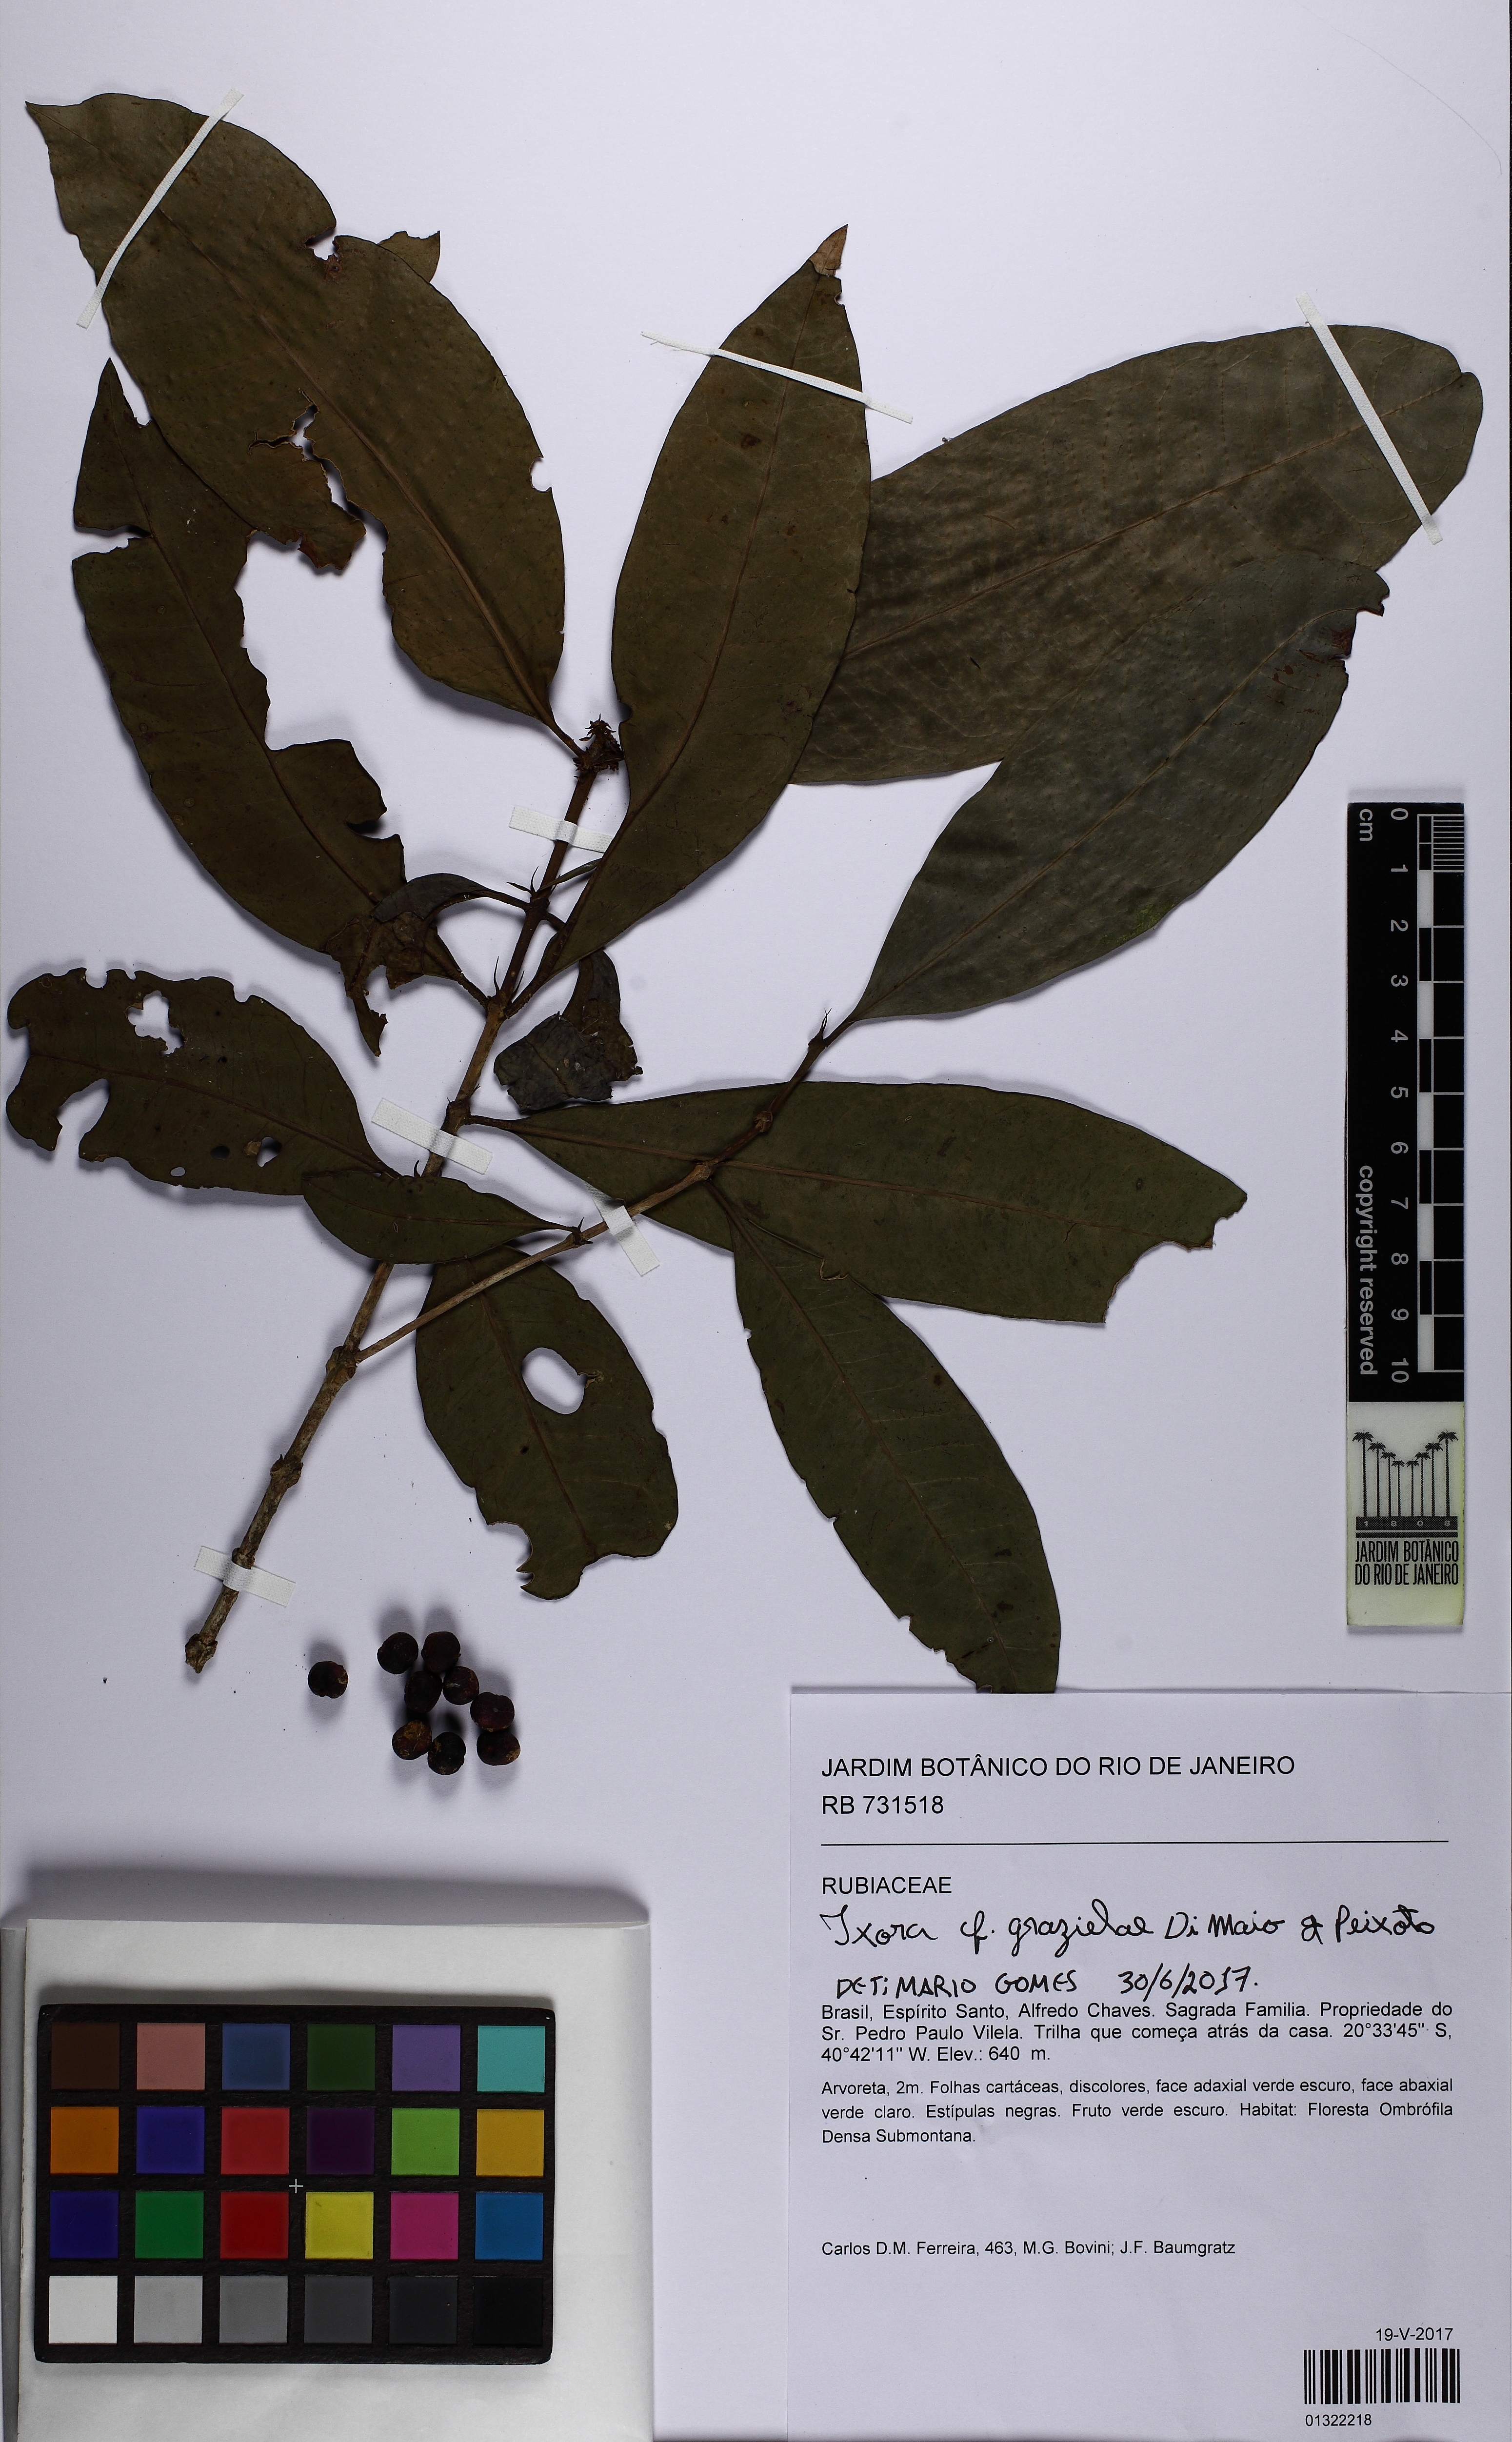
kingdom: Plantae
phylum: Tracheophyta
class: Magnoliopsida
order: Gentianales
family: Rubiaceae
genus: Ixora
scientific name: Ixora grazielae
